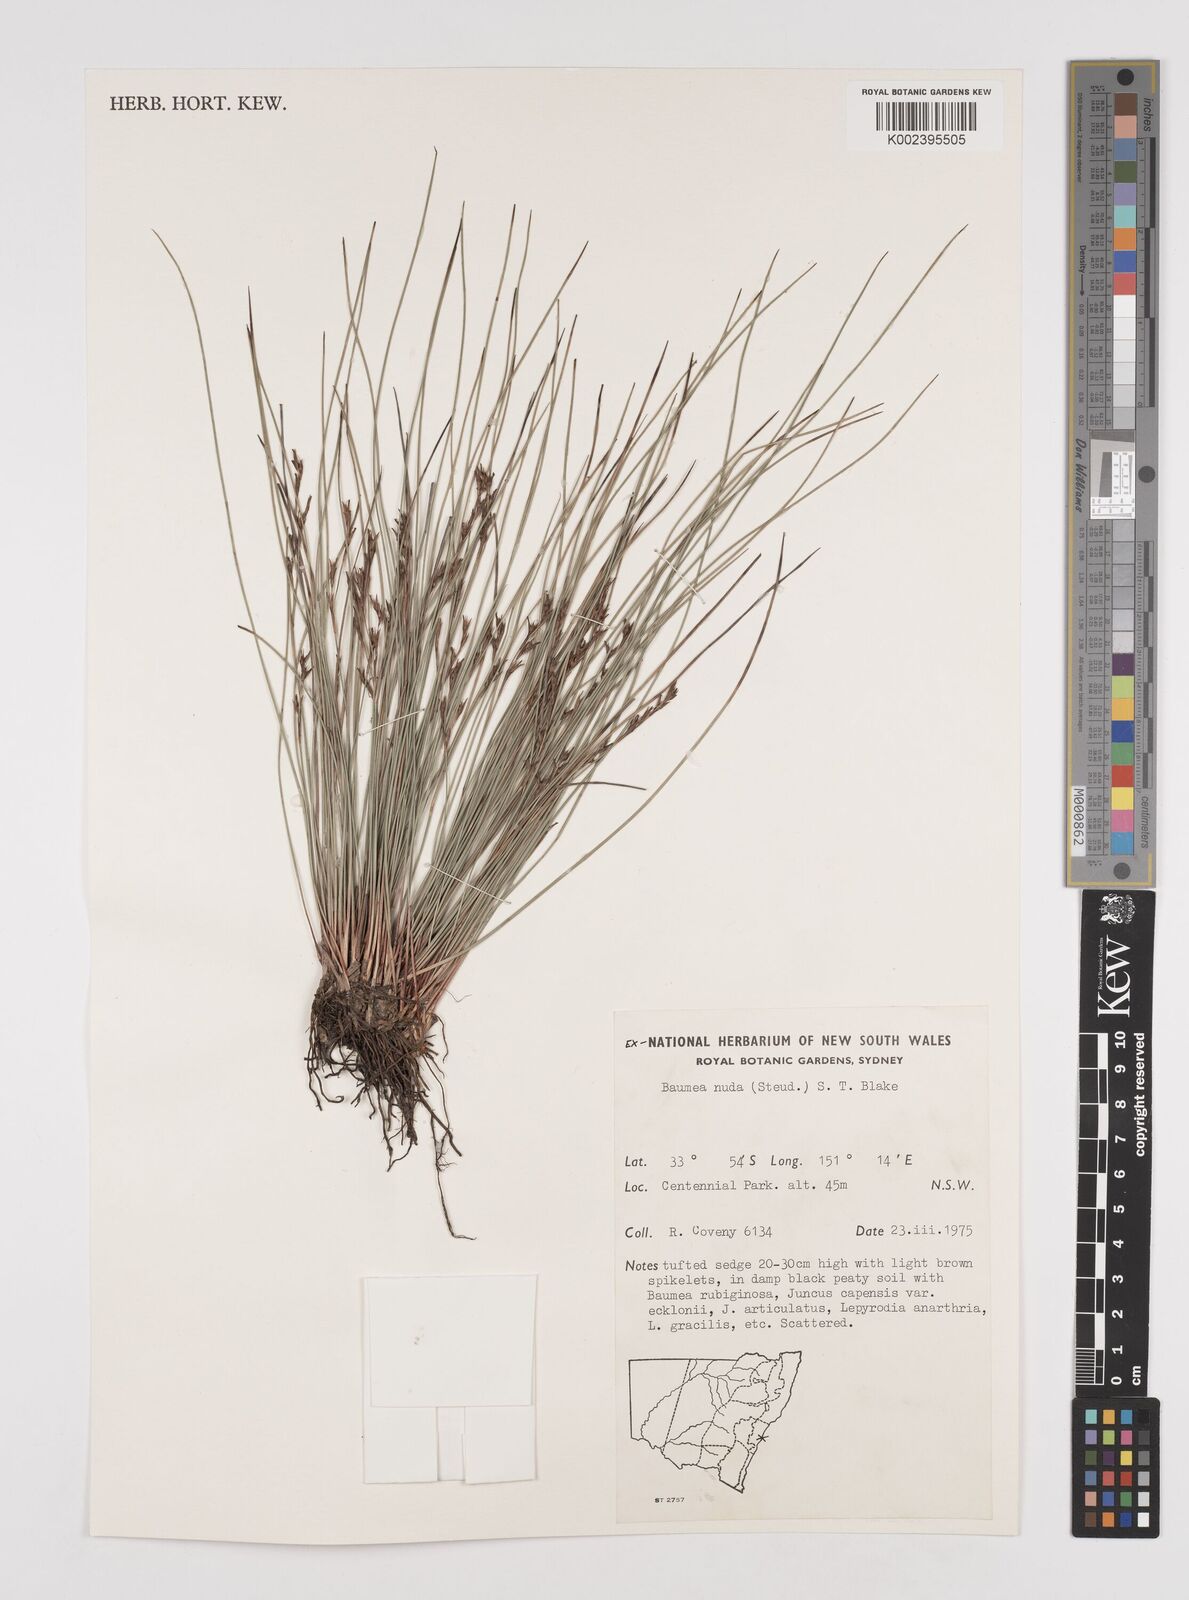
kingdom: Plantae
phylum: Tracheophyta
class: Liliopsida
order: Poales
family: Cyperaceae
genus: Machaerina
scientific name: Machaerina nuda
